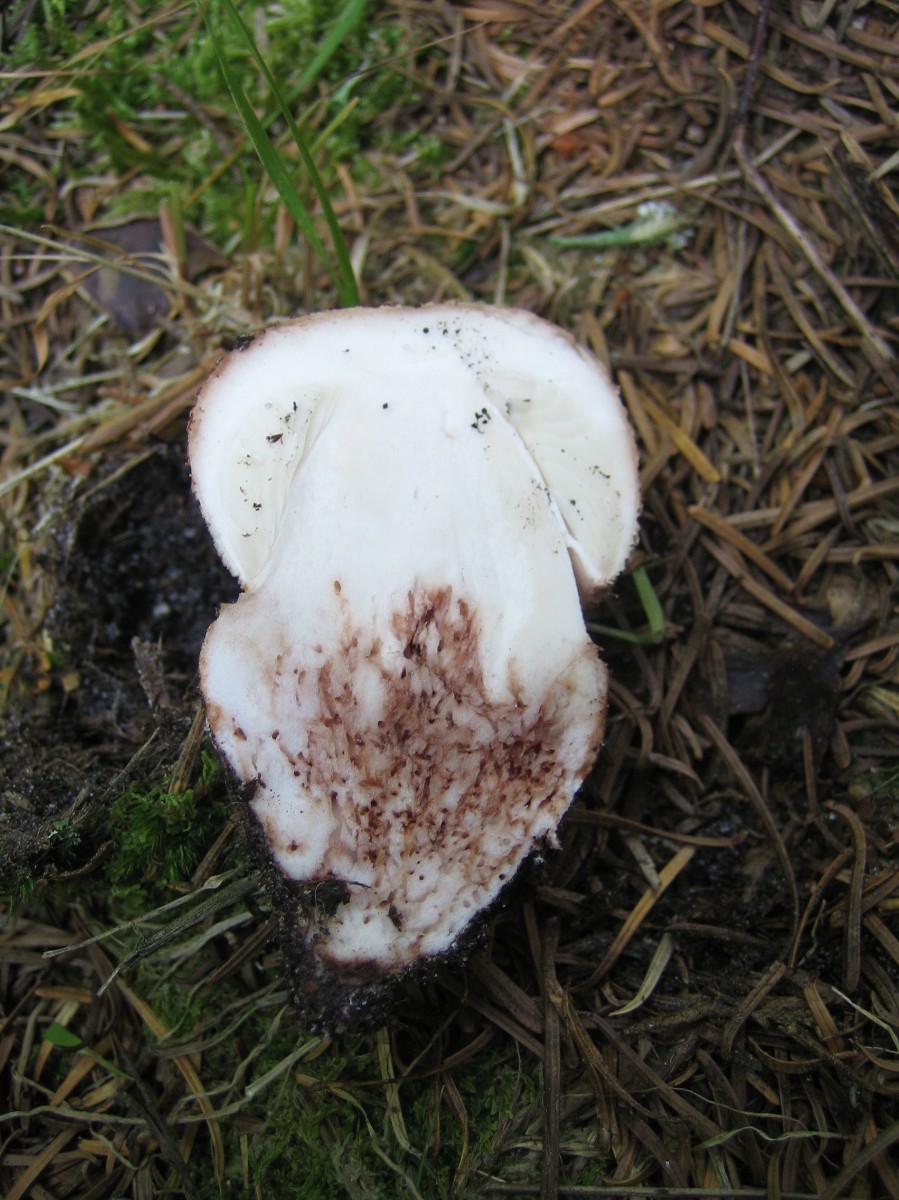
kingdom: Fungi
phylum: Basidiomycota
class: Agaricomycetes
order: Agaricales
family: Amanitaceae
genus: Amanita
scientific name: Amanita rubescens
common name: rødmende fluesvamp
